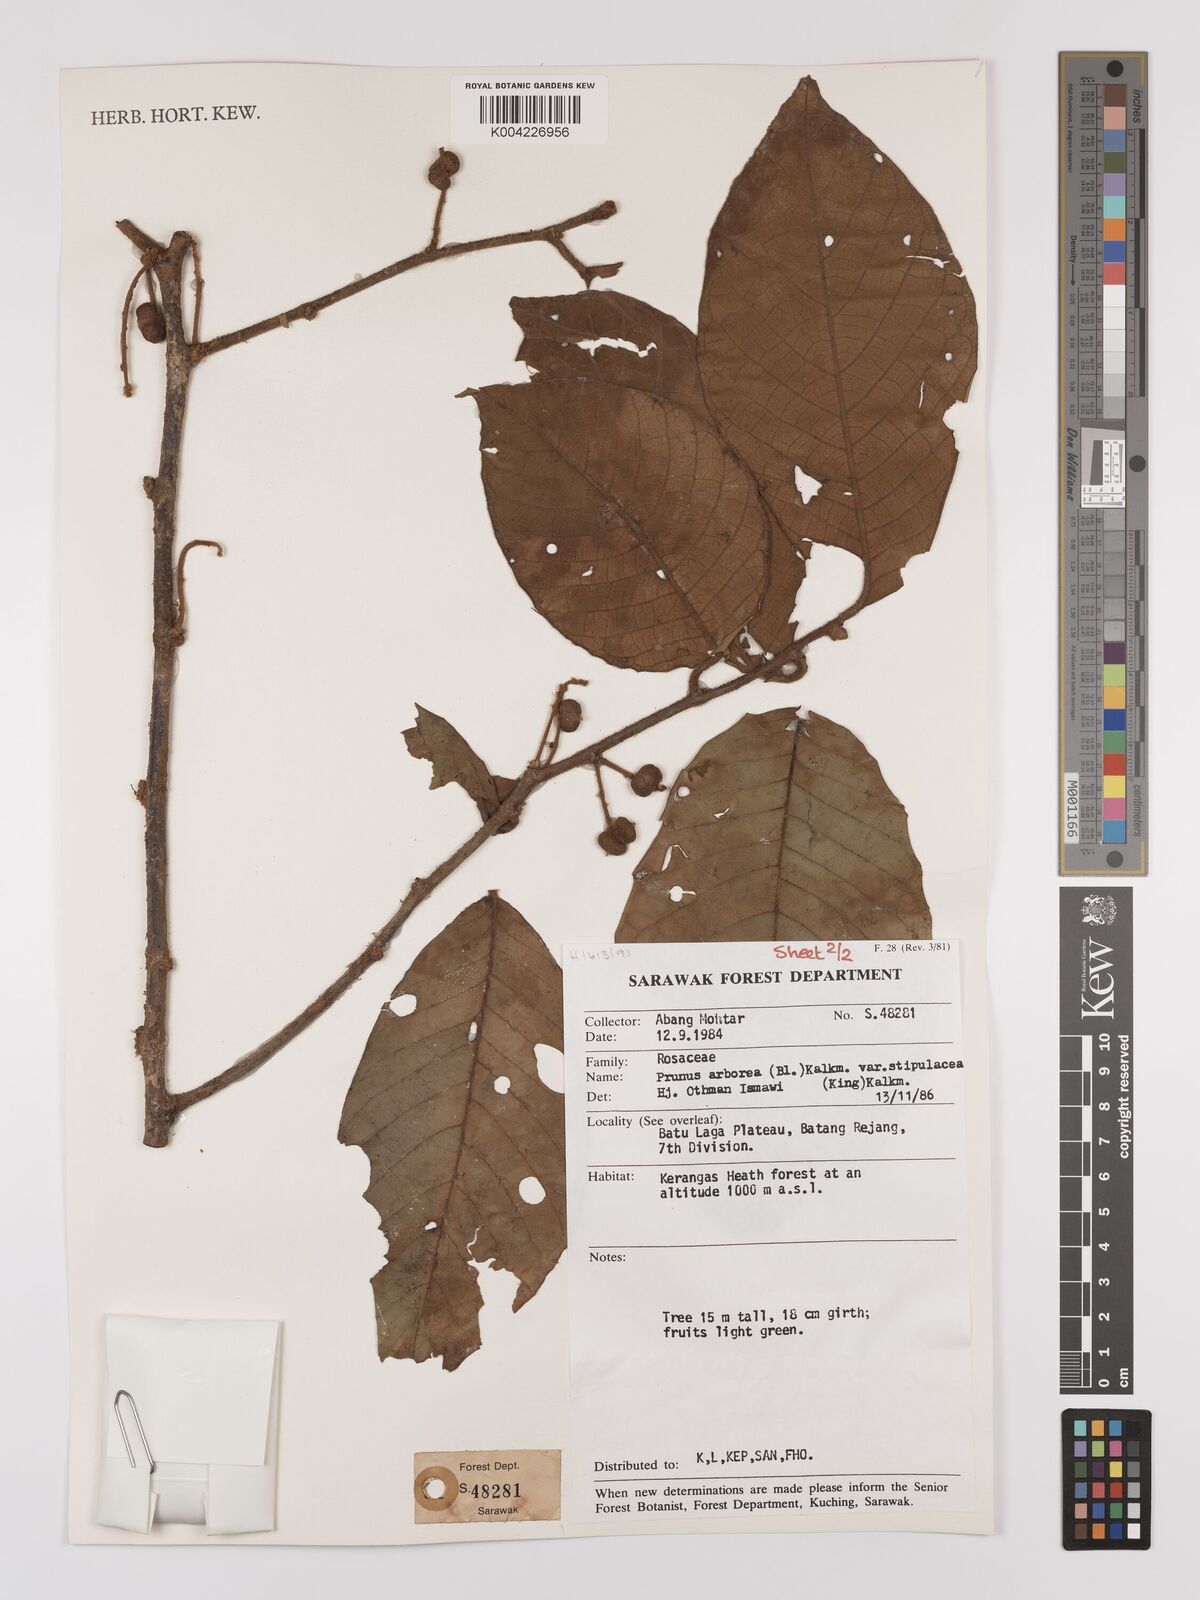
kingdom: Plantae
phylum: Tracheophyta
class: Magnoliopsida
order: Rosales
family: Rosaceae
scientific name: Rosaceae
